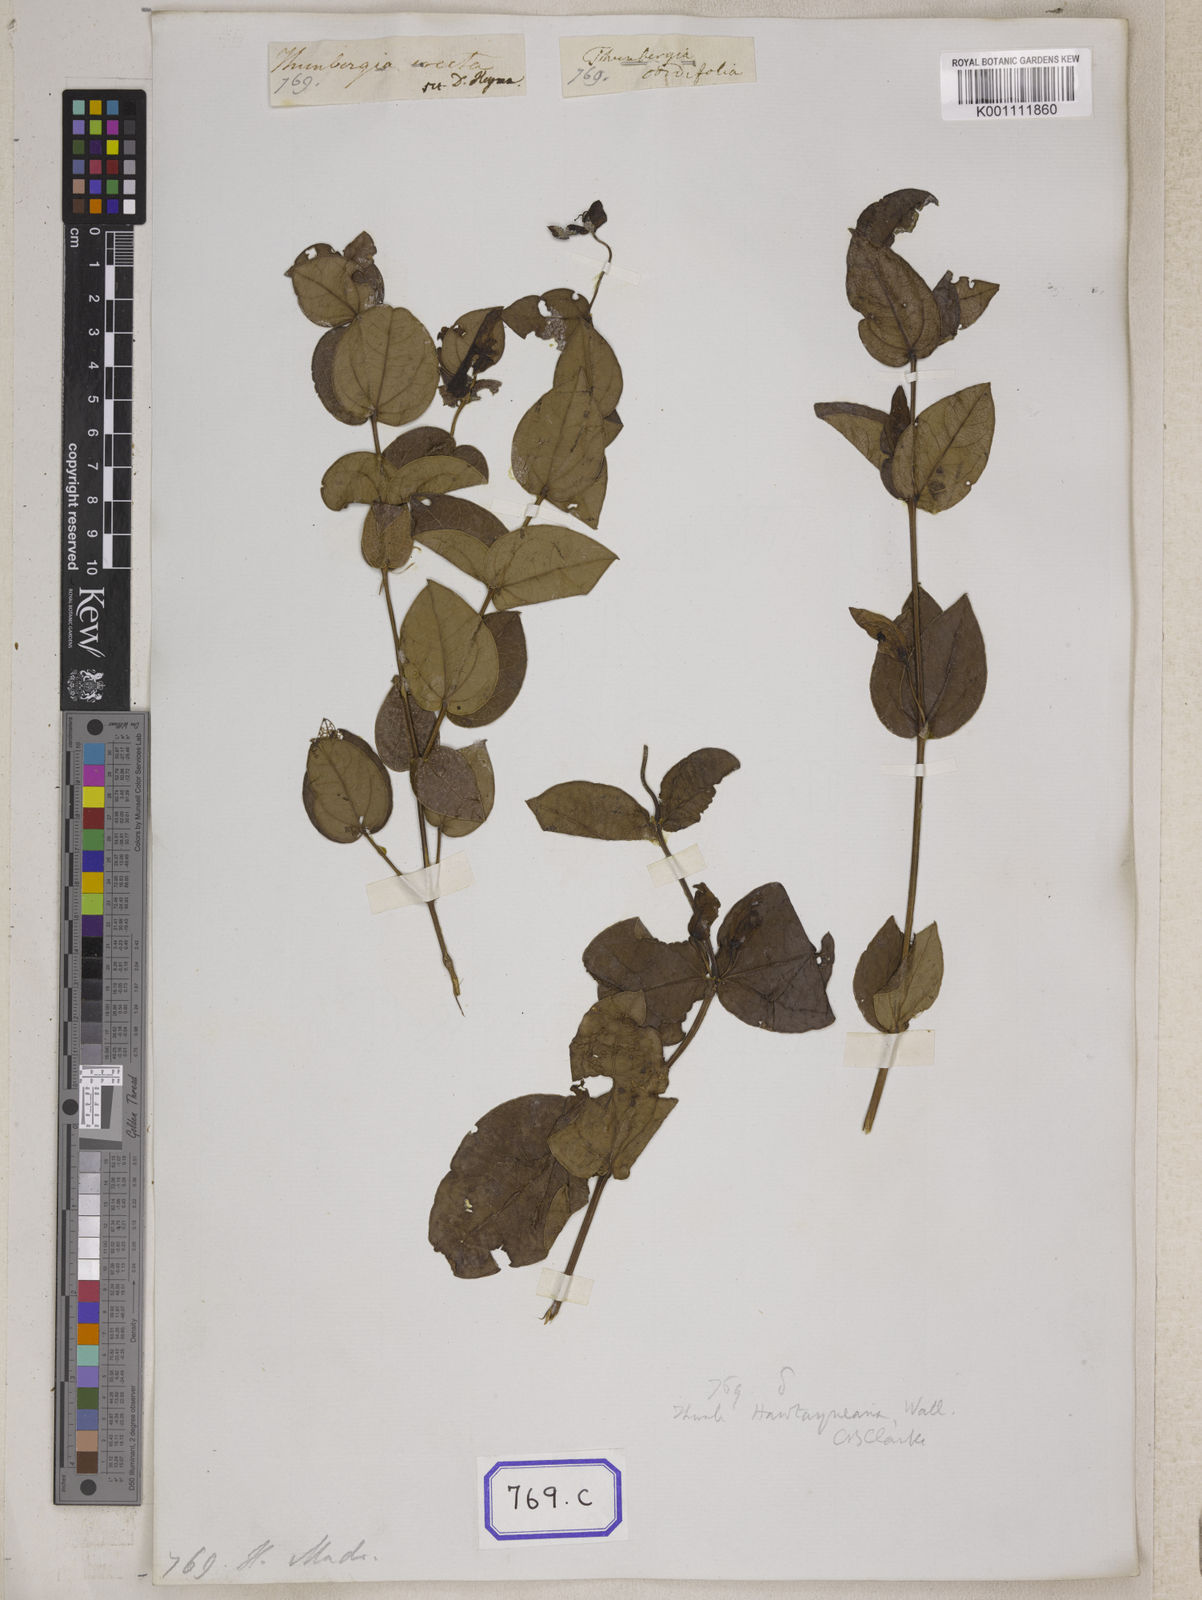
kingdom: Plantae
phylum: Tracheophyta
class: Magnoliopsida
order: Lamiales
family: Acanthaceae
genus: Meyenia
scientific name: Meyenia hawtayneana
